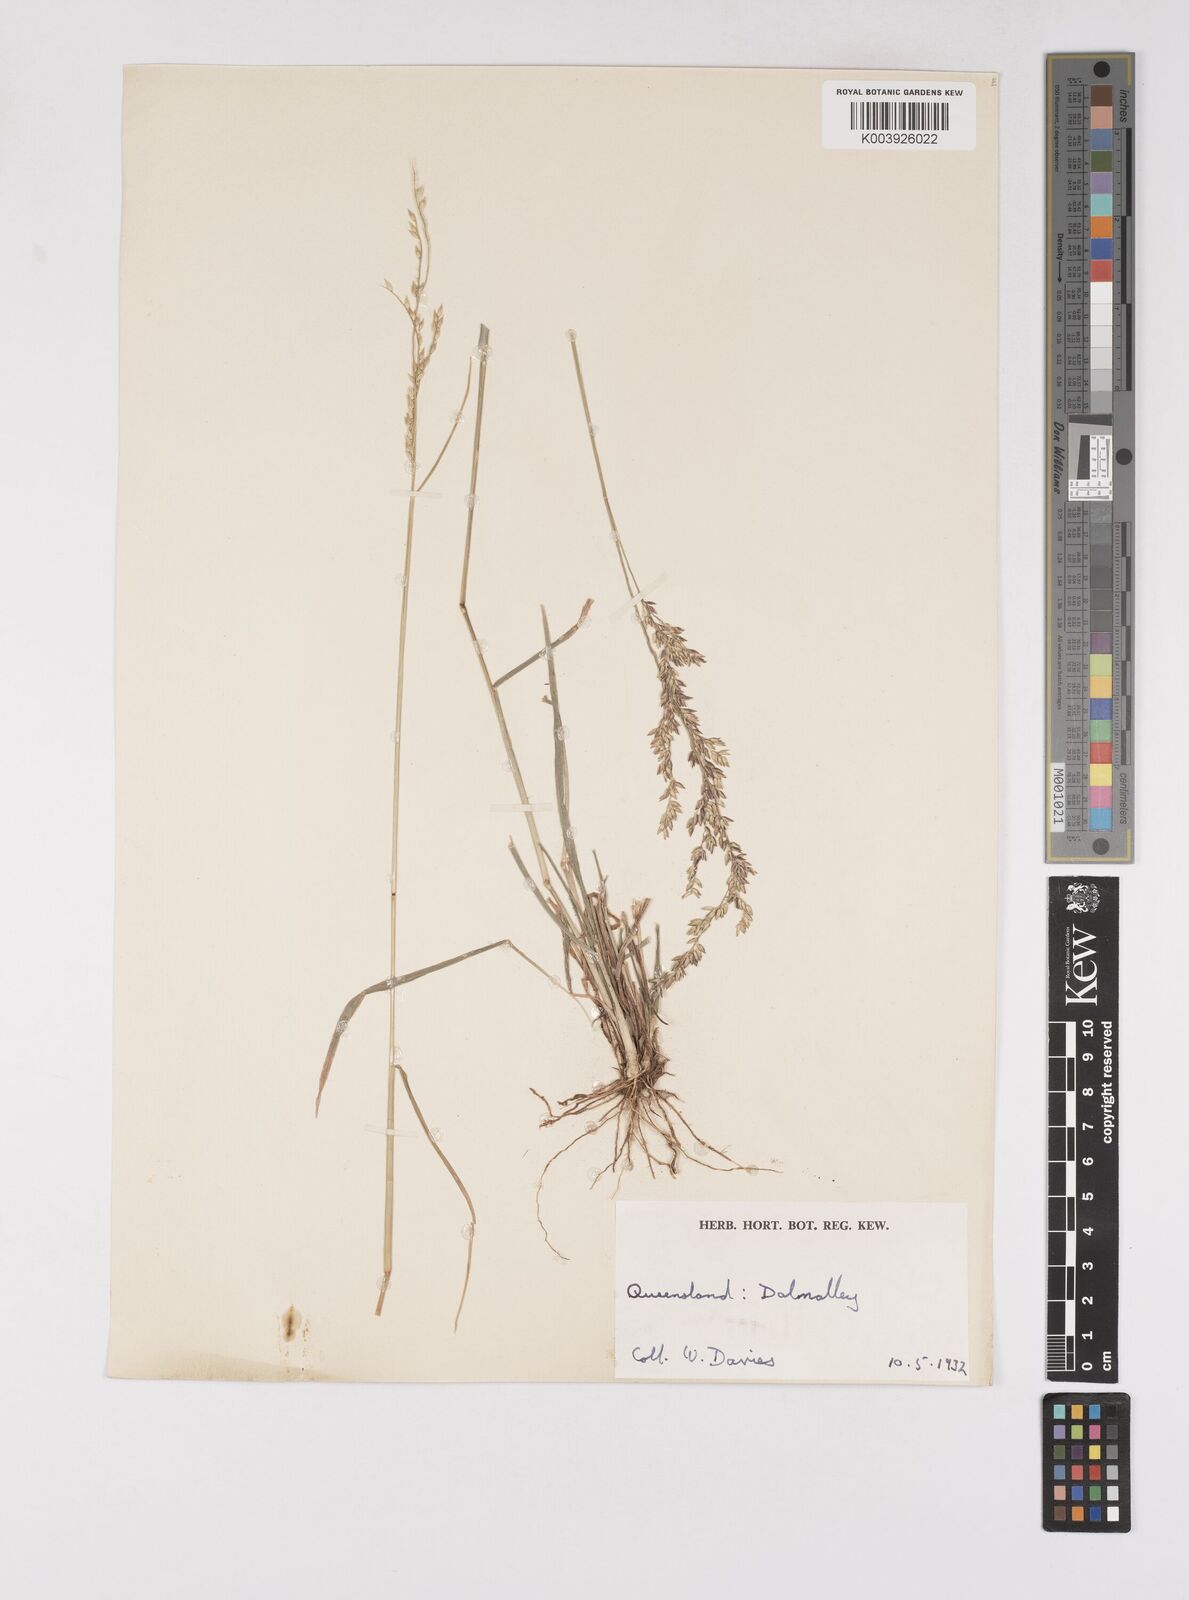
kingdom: Plantae
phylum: Tracheophyta
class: Liliopsida
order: Poales
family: Poaceae
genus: Eriochloa
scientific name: Eriochloa
